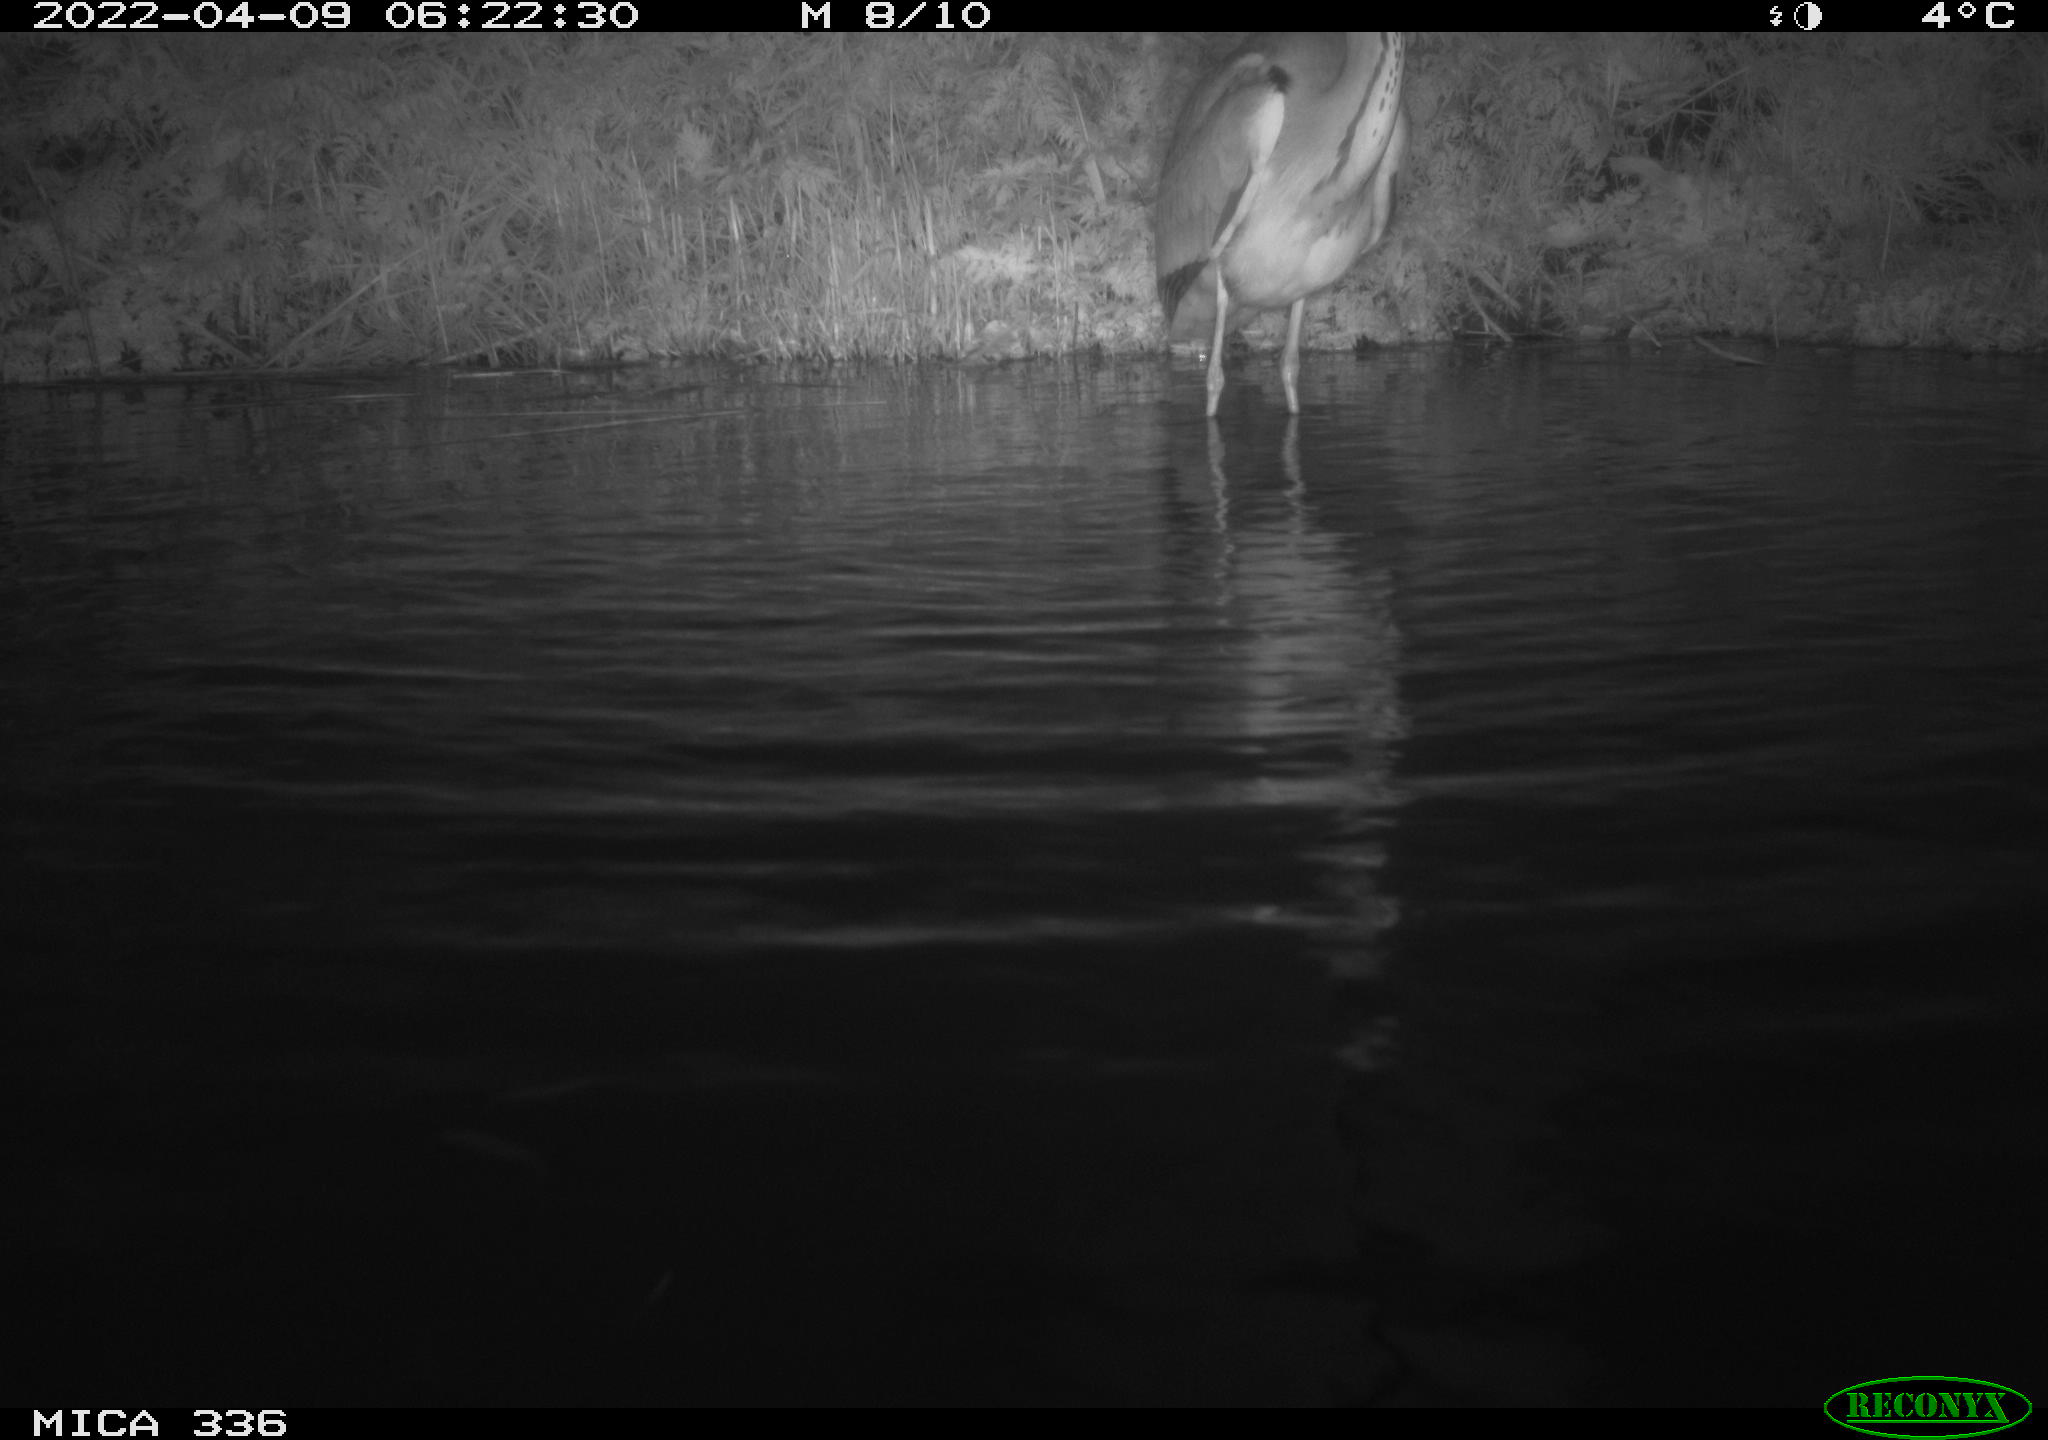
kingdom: Animalia
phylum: Chordata
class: Aves
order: Pelecaniformes
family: Ardeidae
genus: Ardea
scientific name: Ardea cinerea
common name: Grey heron
